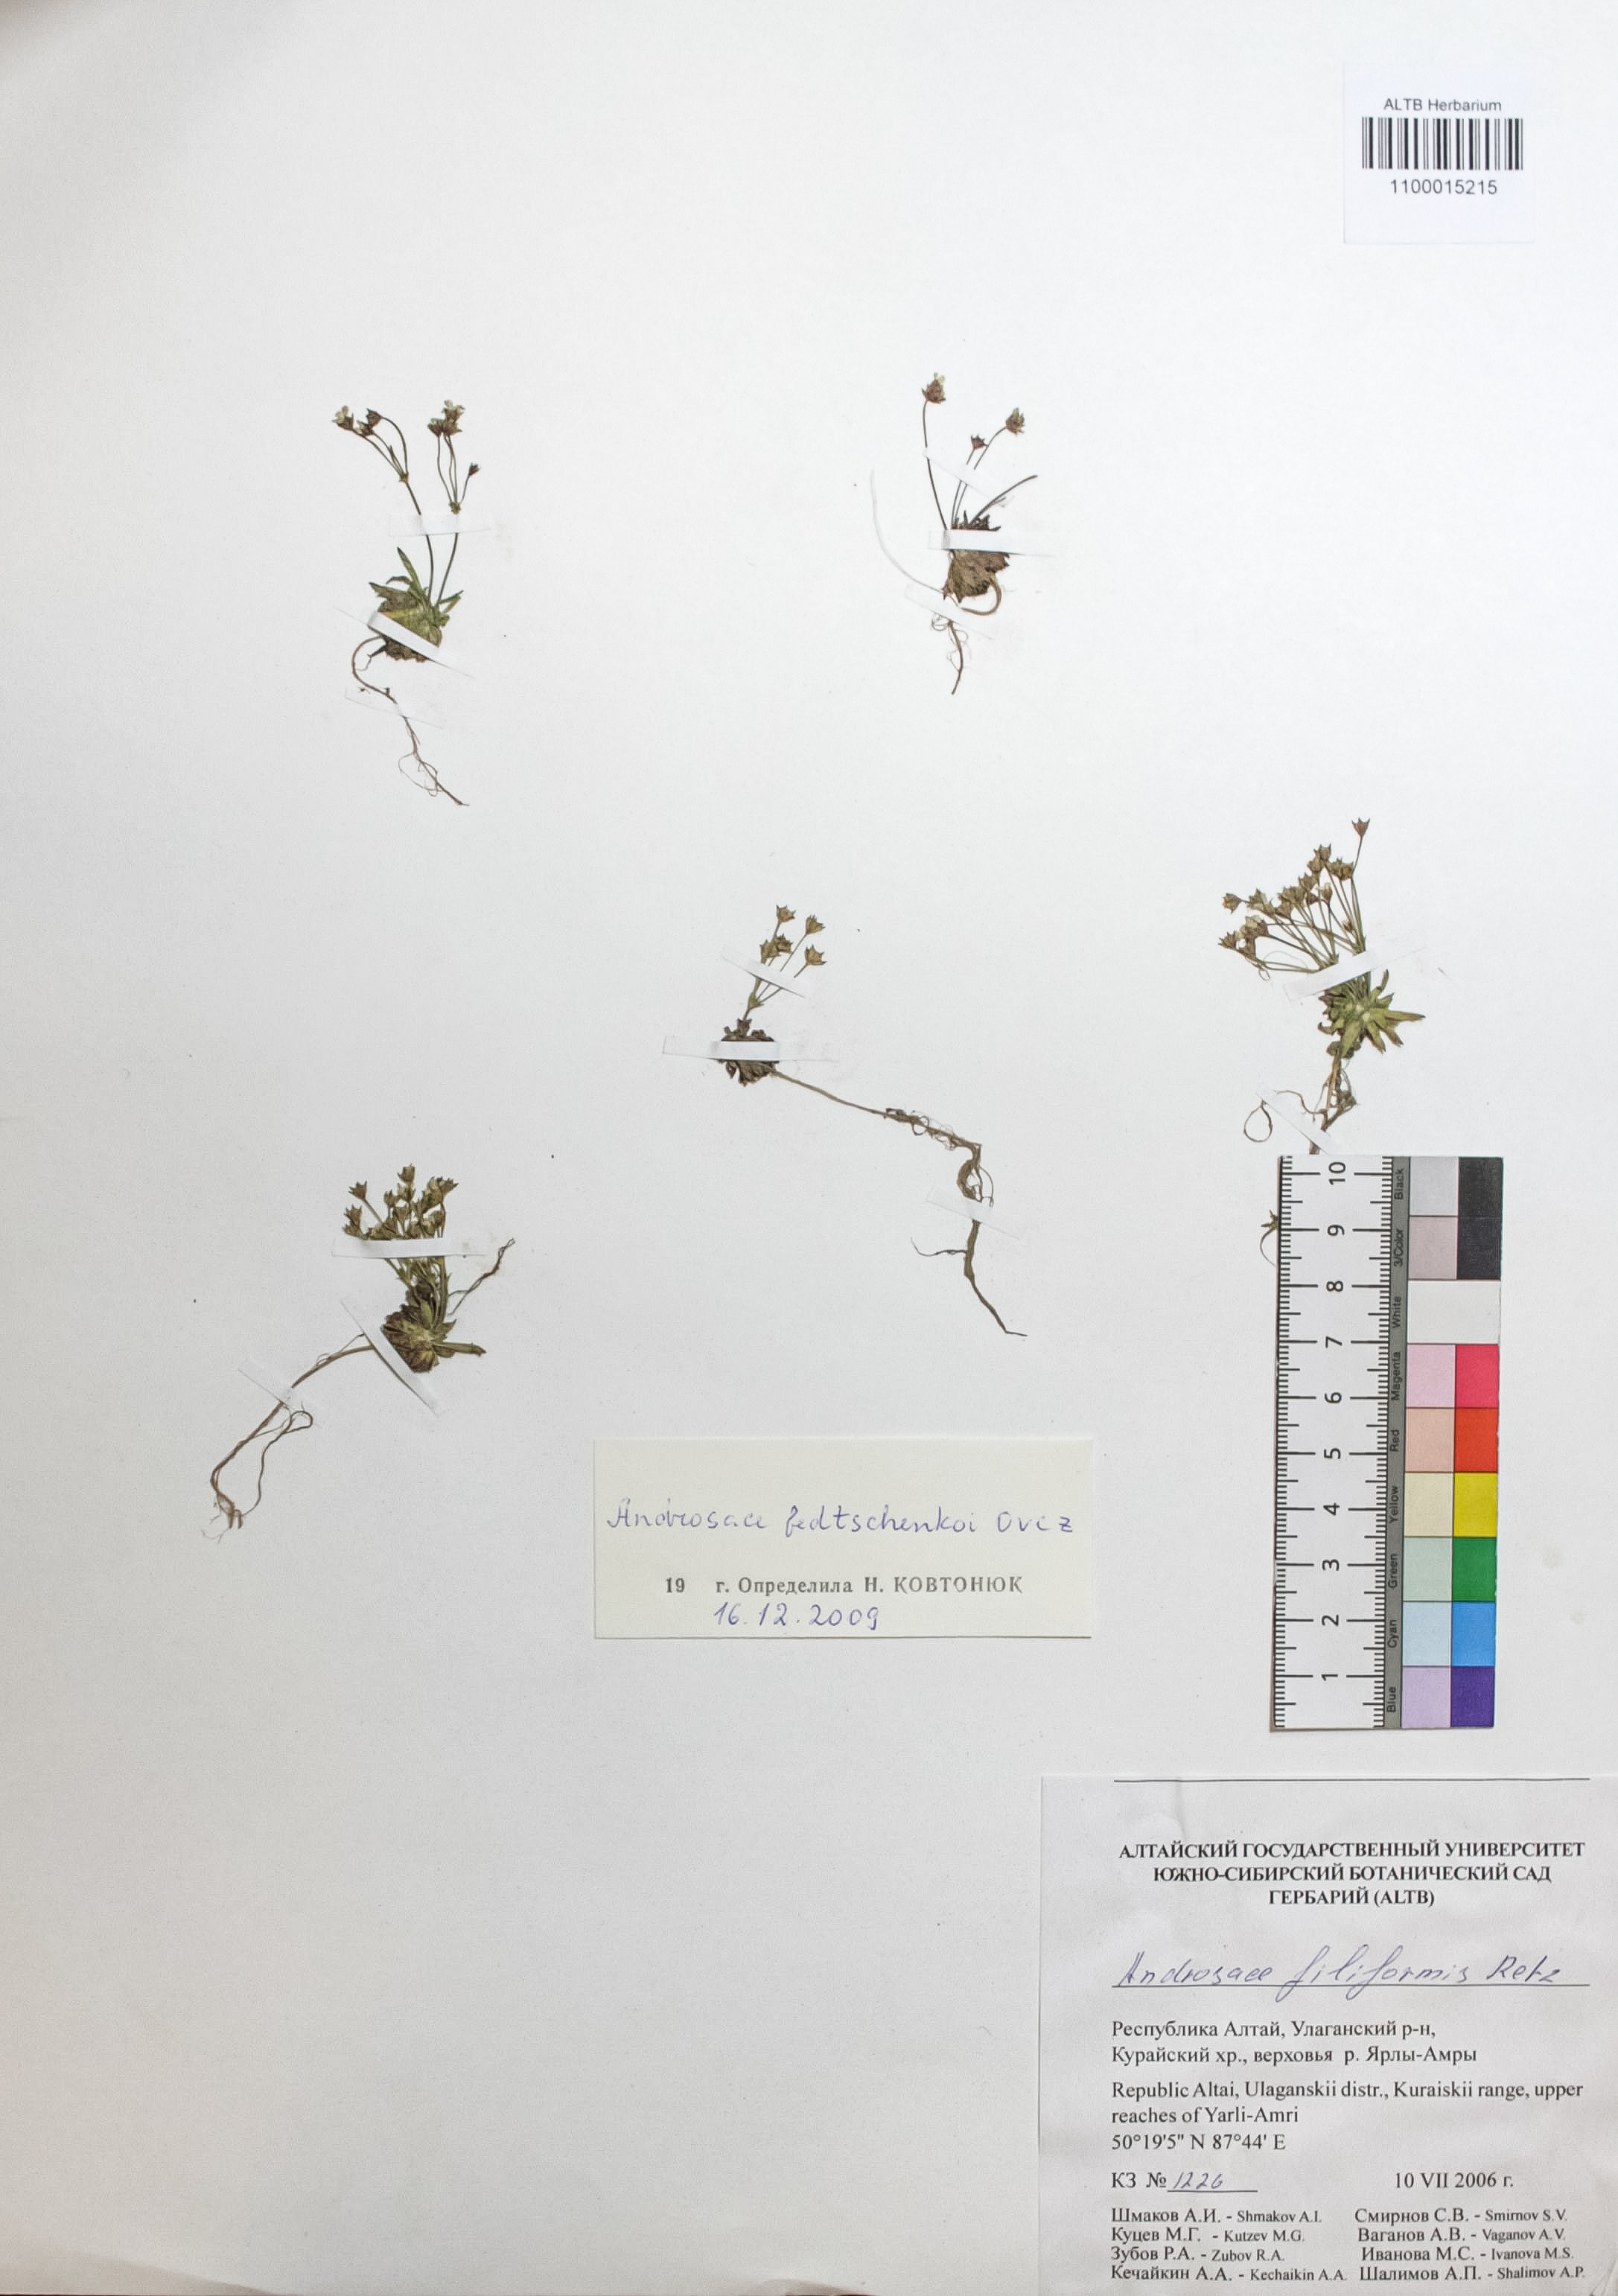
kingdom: Plantae
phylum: Tracheophyta
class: Magnoliopsida
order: Ericales
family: Primulaceae
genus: Androsace
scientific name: Androsace fedtschenkoi
